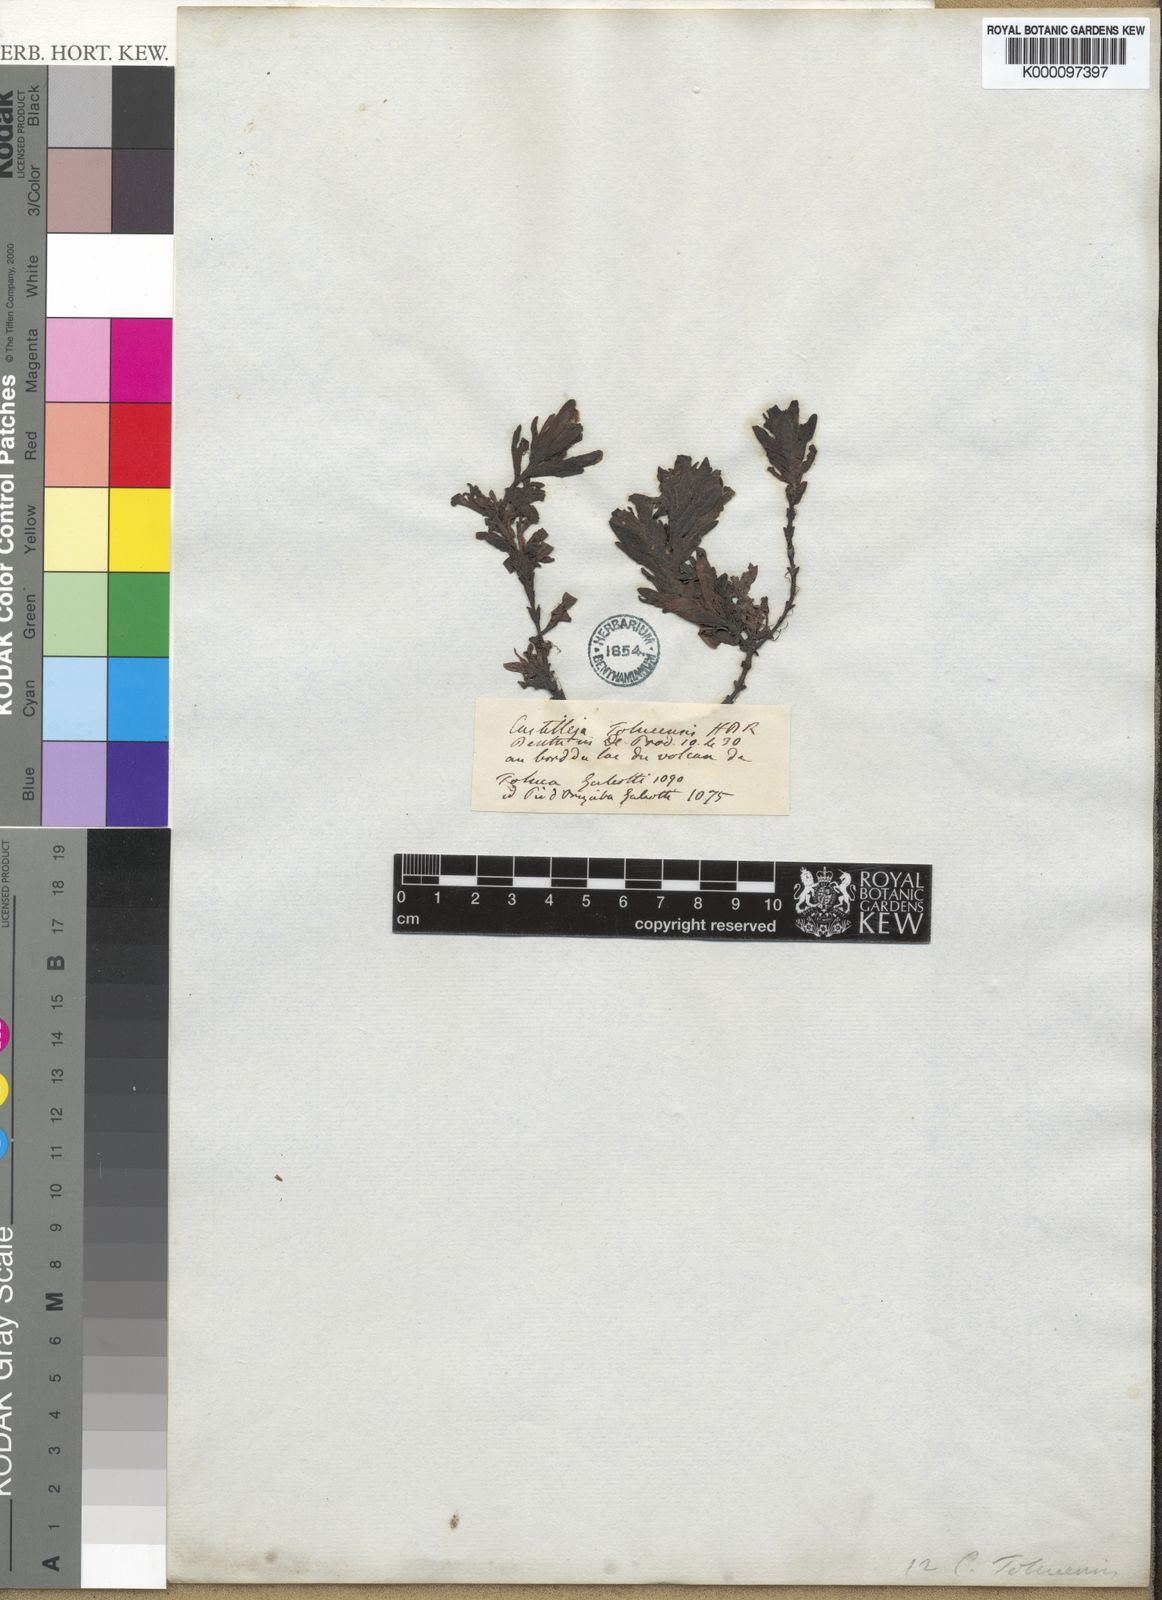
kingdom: Plantae
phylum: Tracheophyta
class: Magnoliopsida
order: Lamiales
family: Orobanchaceae
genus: Castilleja
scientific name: Castilleja tolucensis
